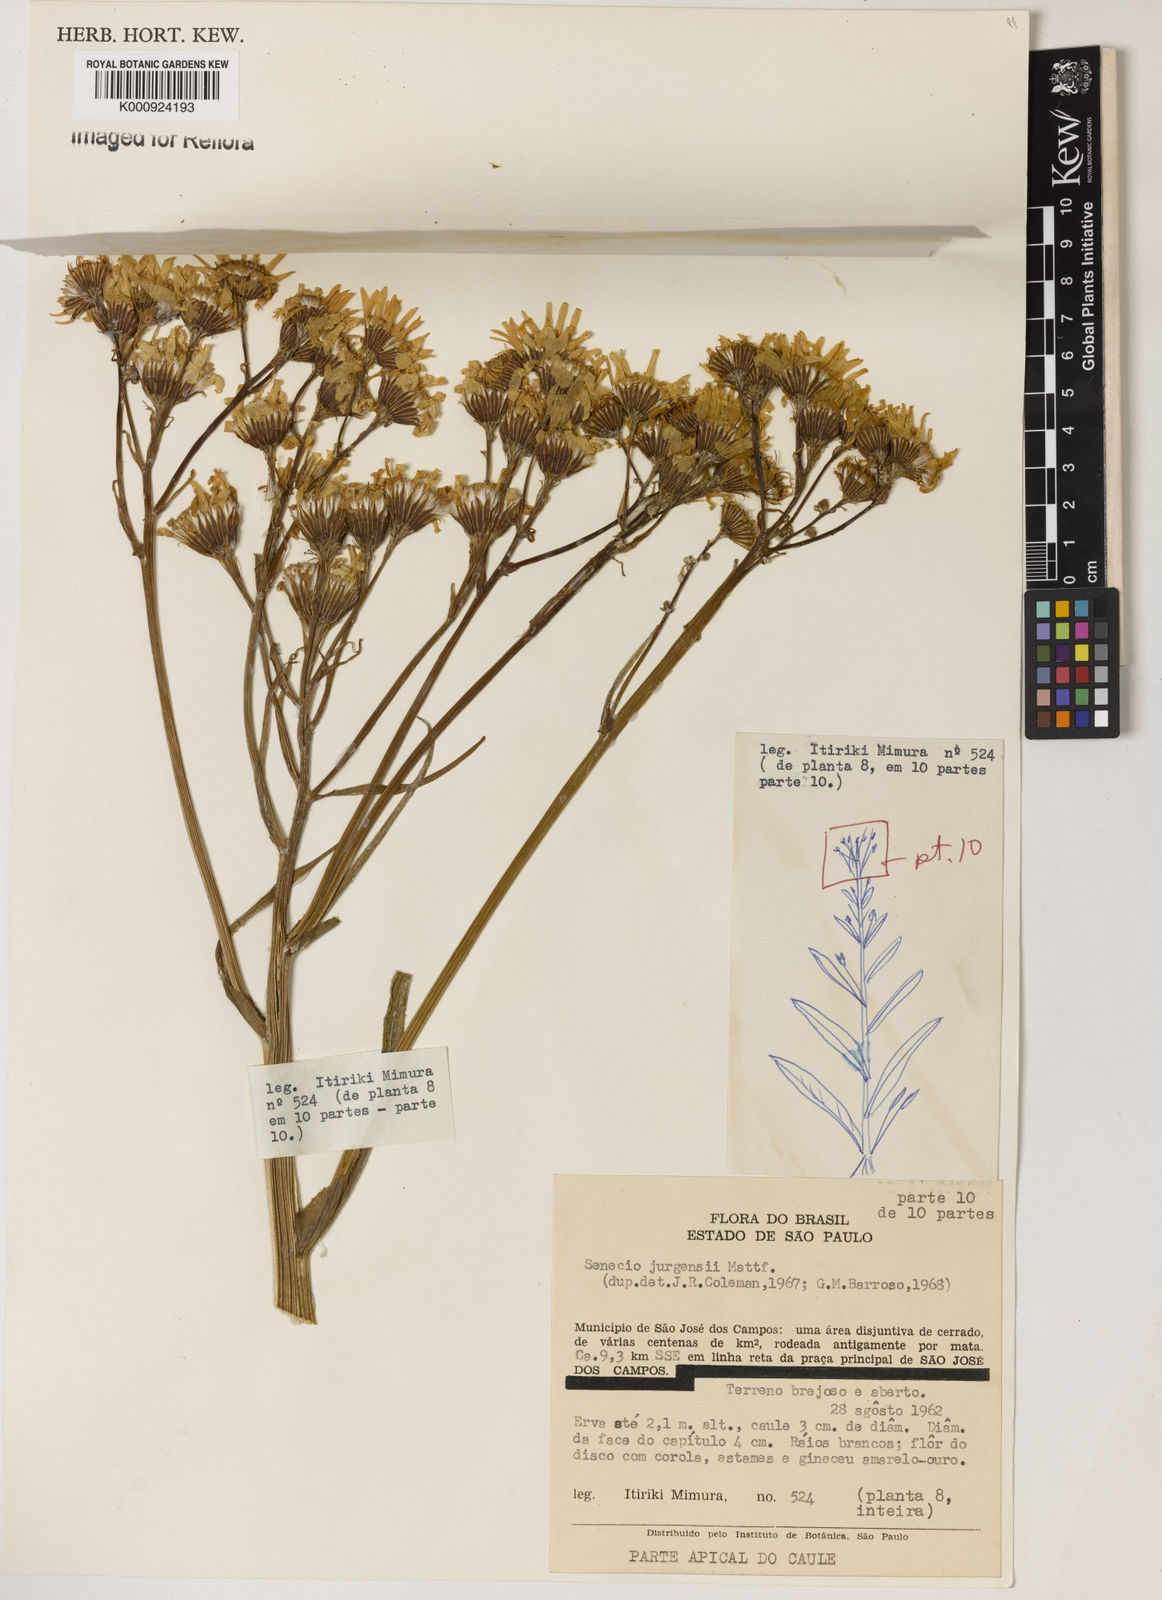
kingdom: Plantae
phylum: Tracheophyta
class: Magnoliopsida
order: Asterales
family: Asteraceae
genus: Senecio
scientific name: Senecio juergensii
